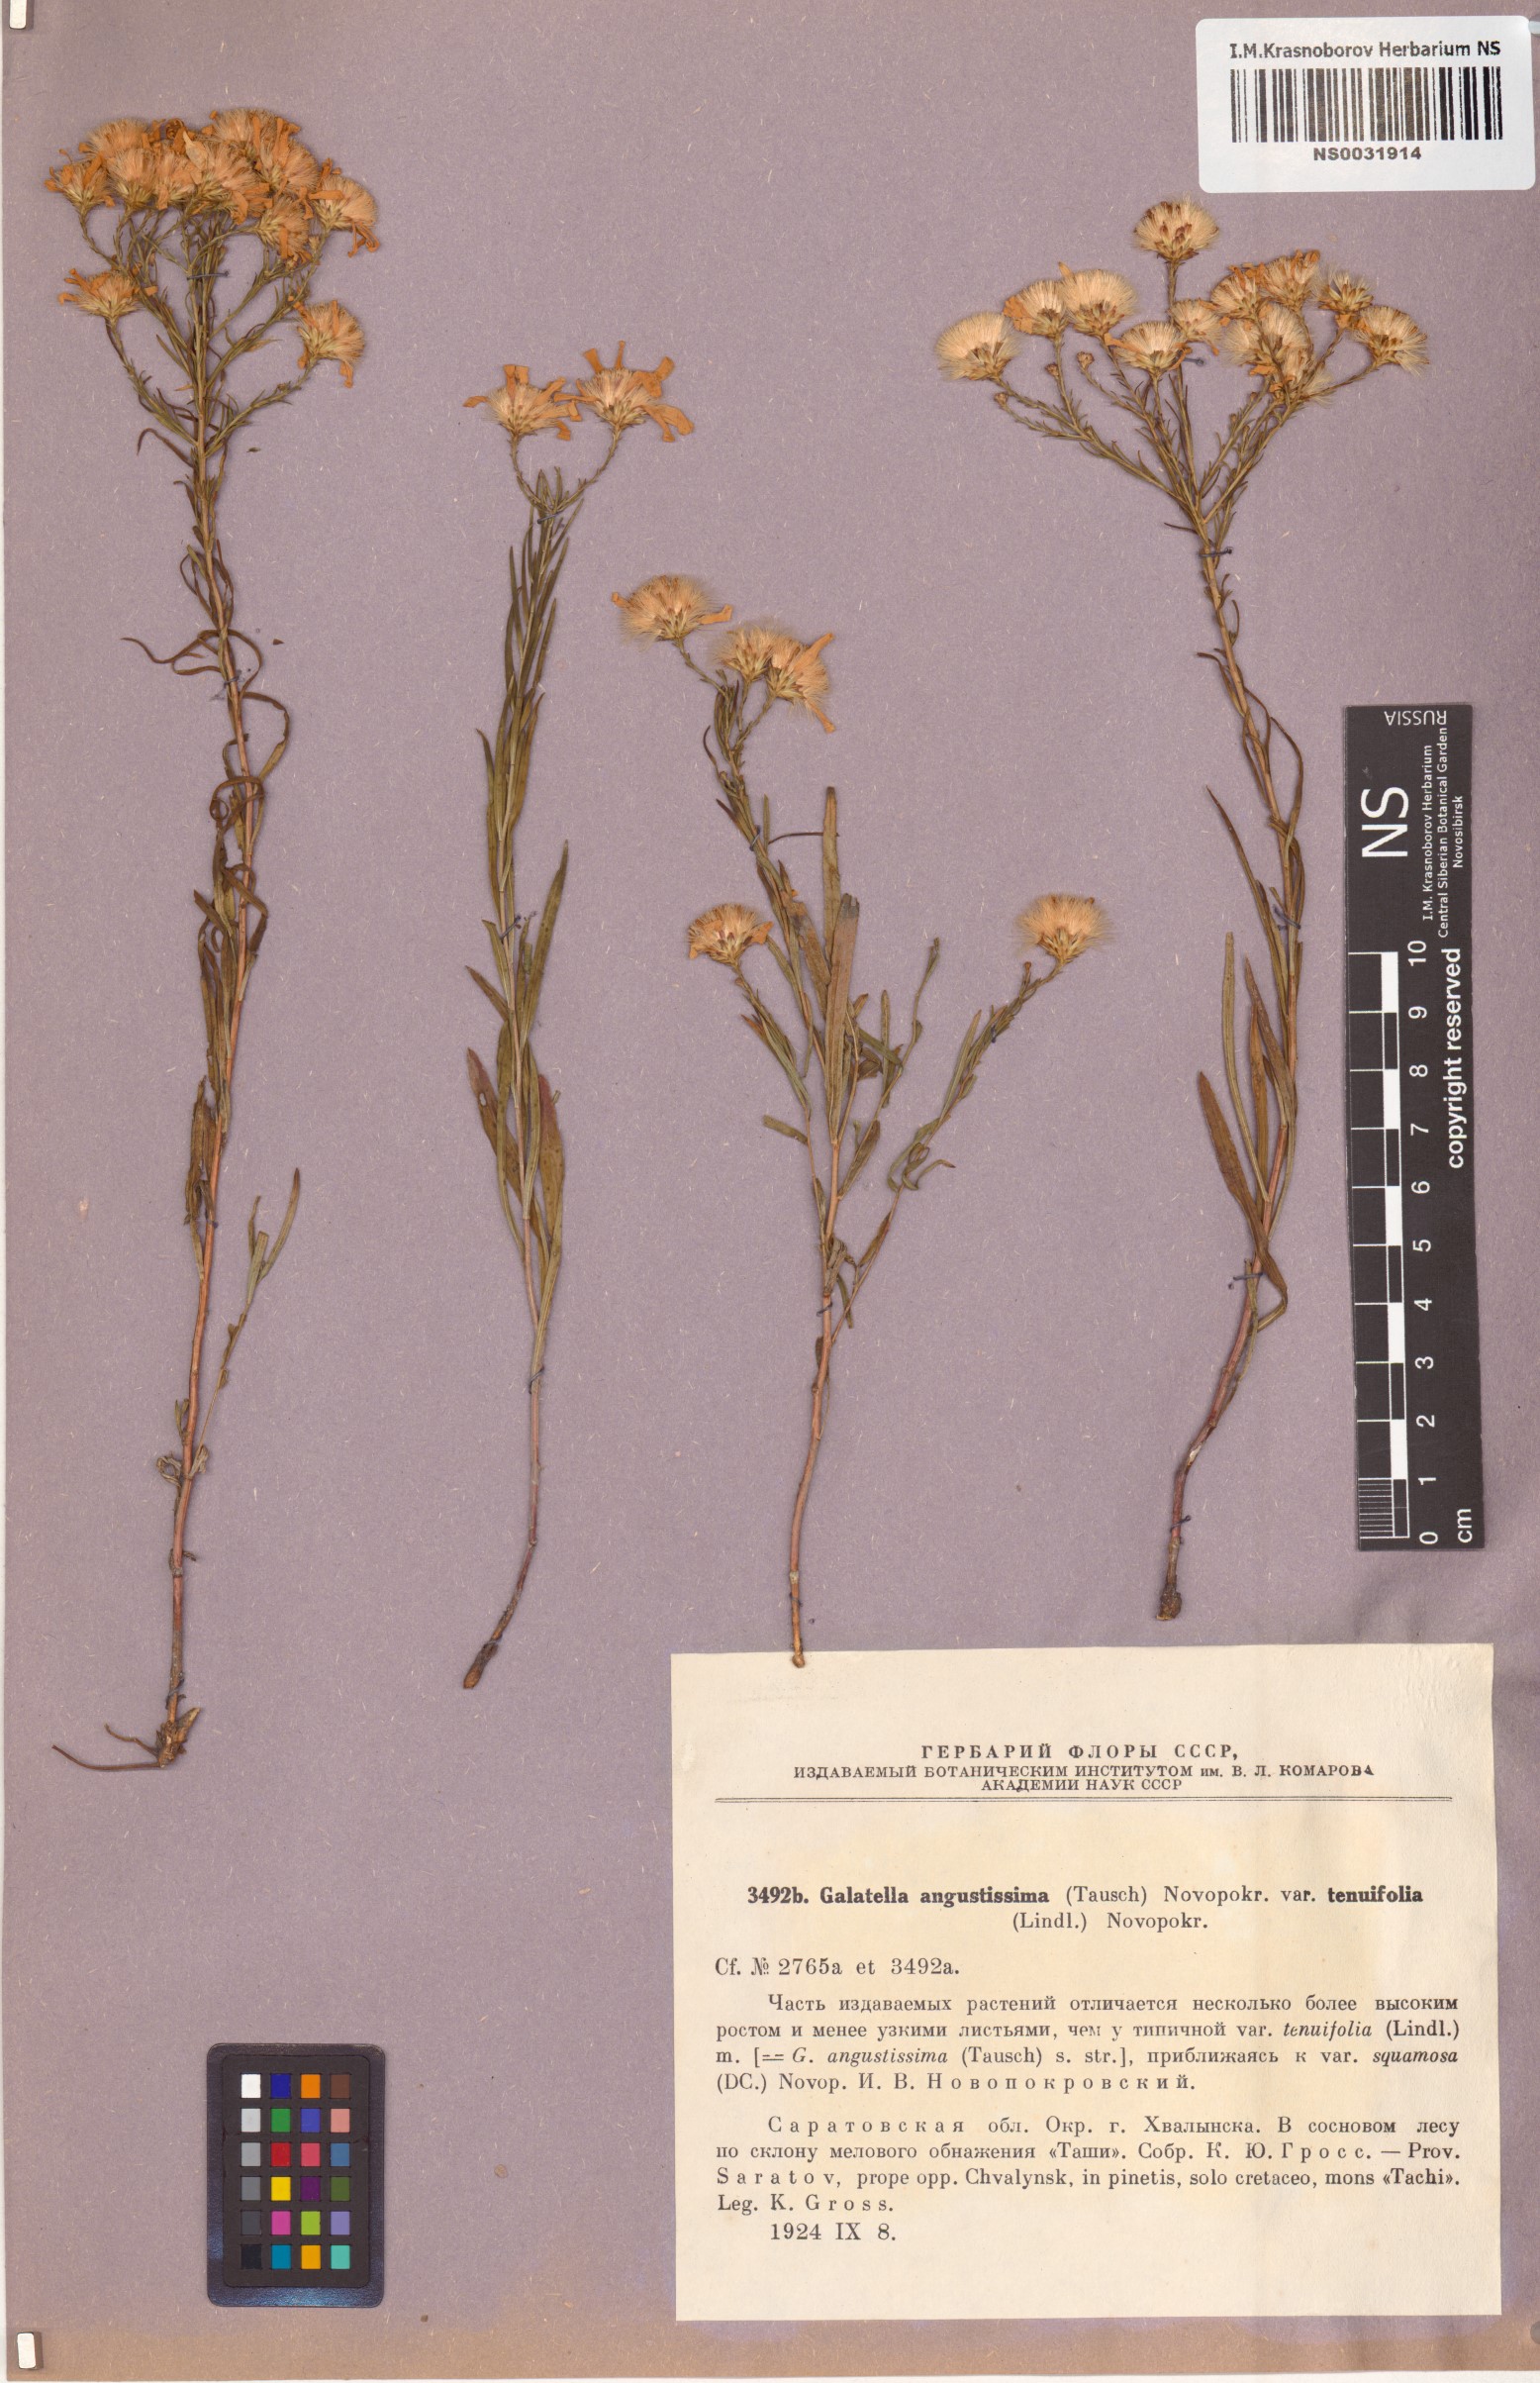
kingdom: Plantae
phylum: Tracheophyta
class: Magnoliopsida
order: Asterales
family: Asteraceae
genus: Galatella
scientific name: Galatella angustissima
